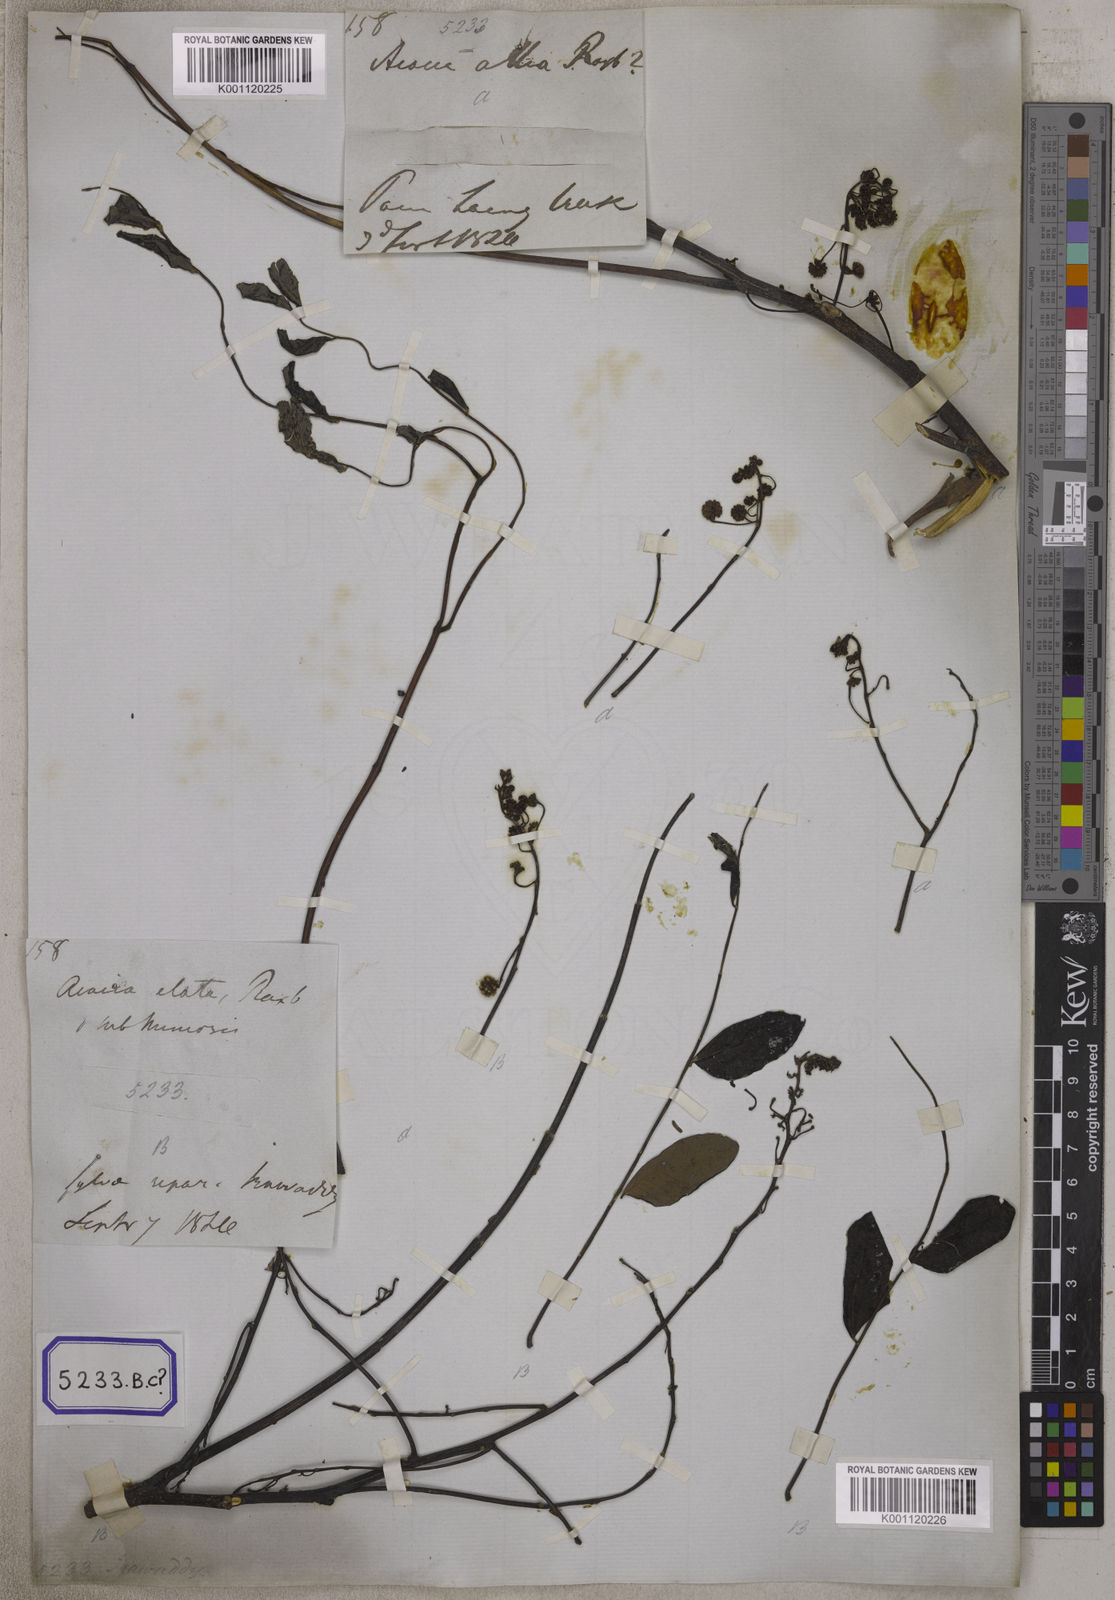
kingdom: Plantae
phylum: Tracheophyta
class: Magnoliopsida
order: Fabales
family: Fabaceae
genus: Acacia
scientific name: Acacia
